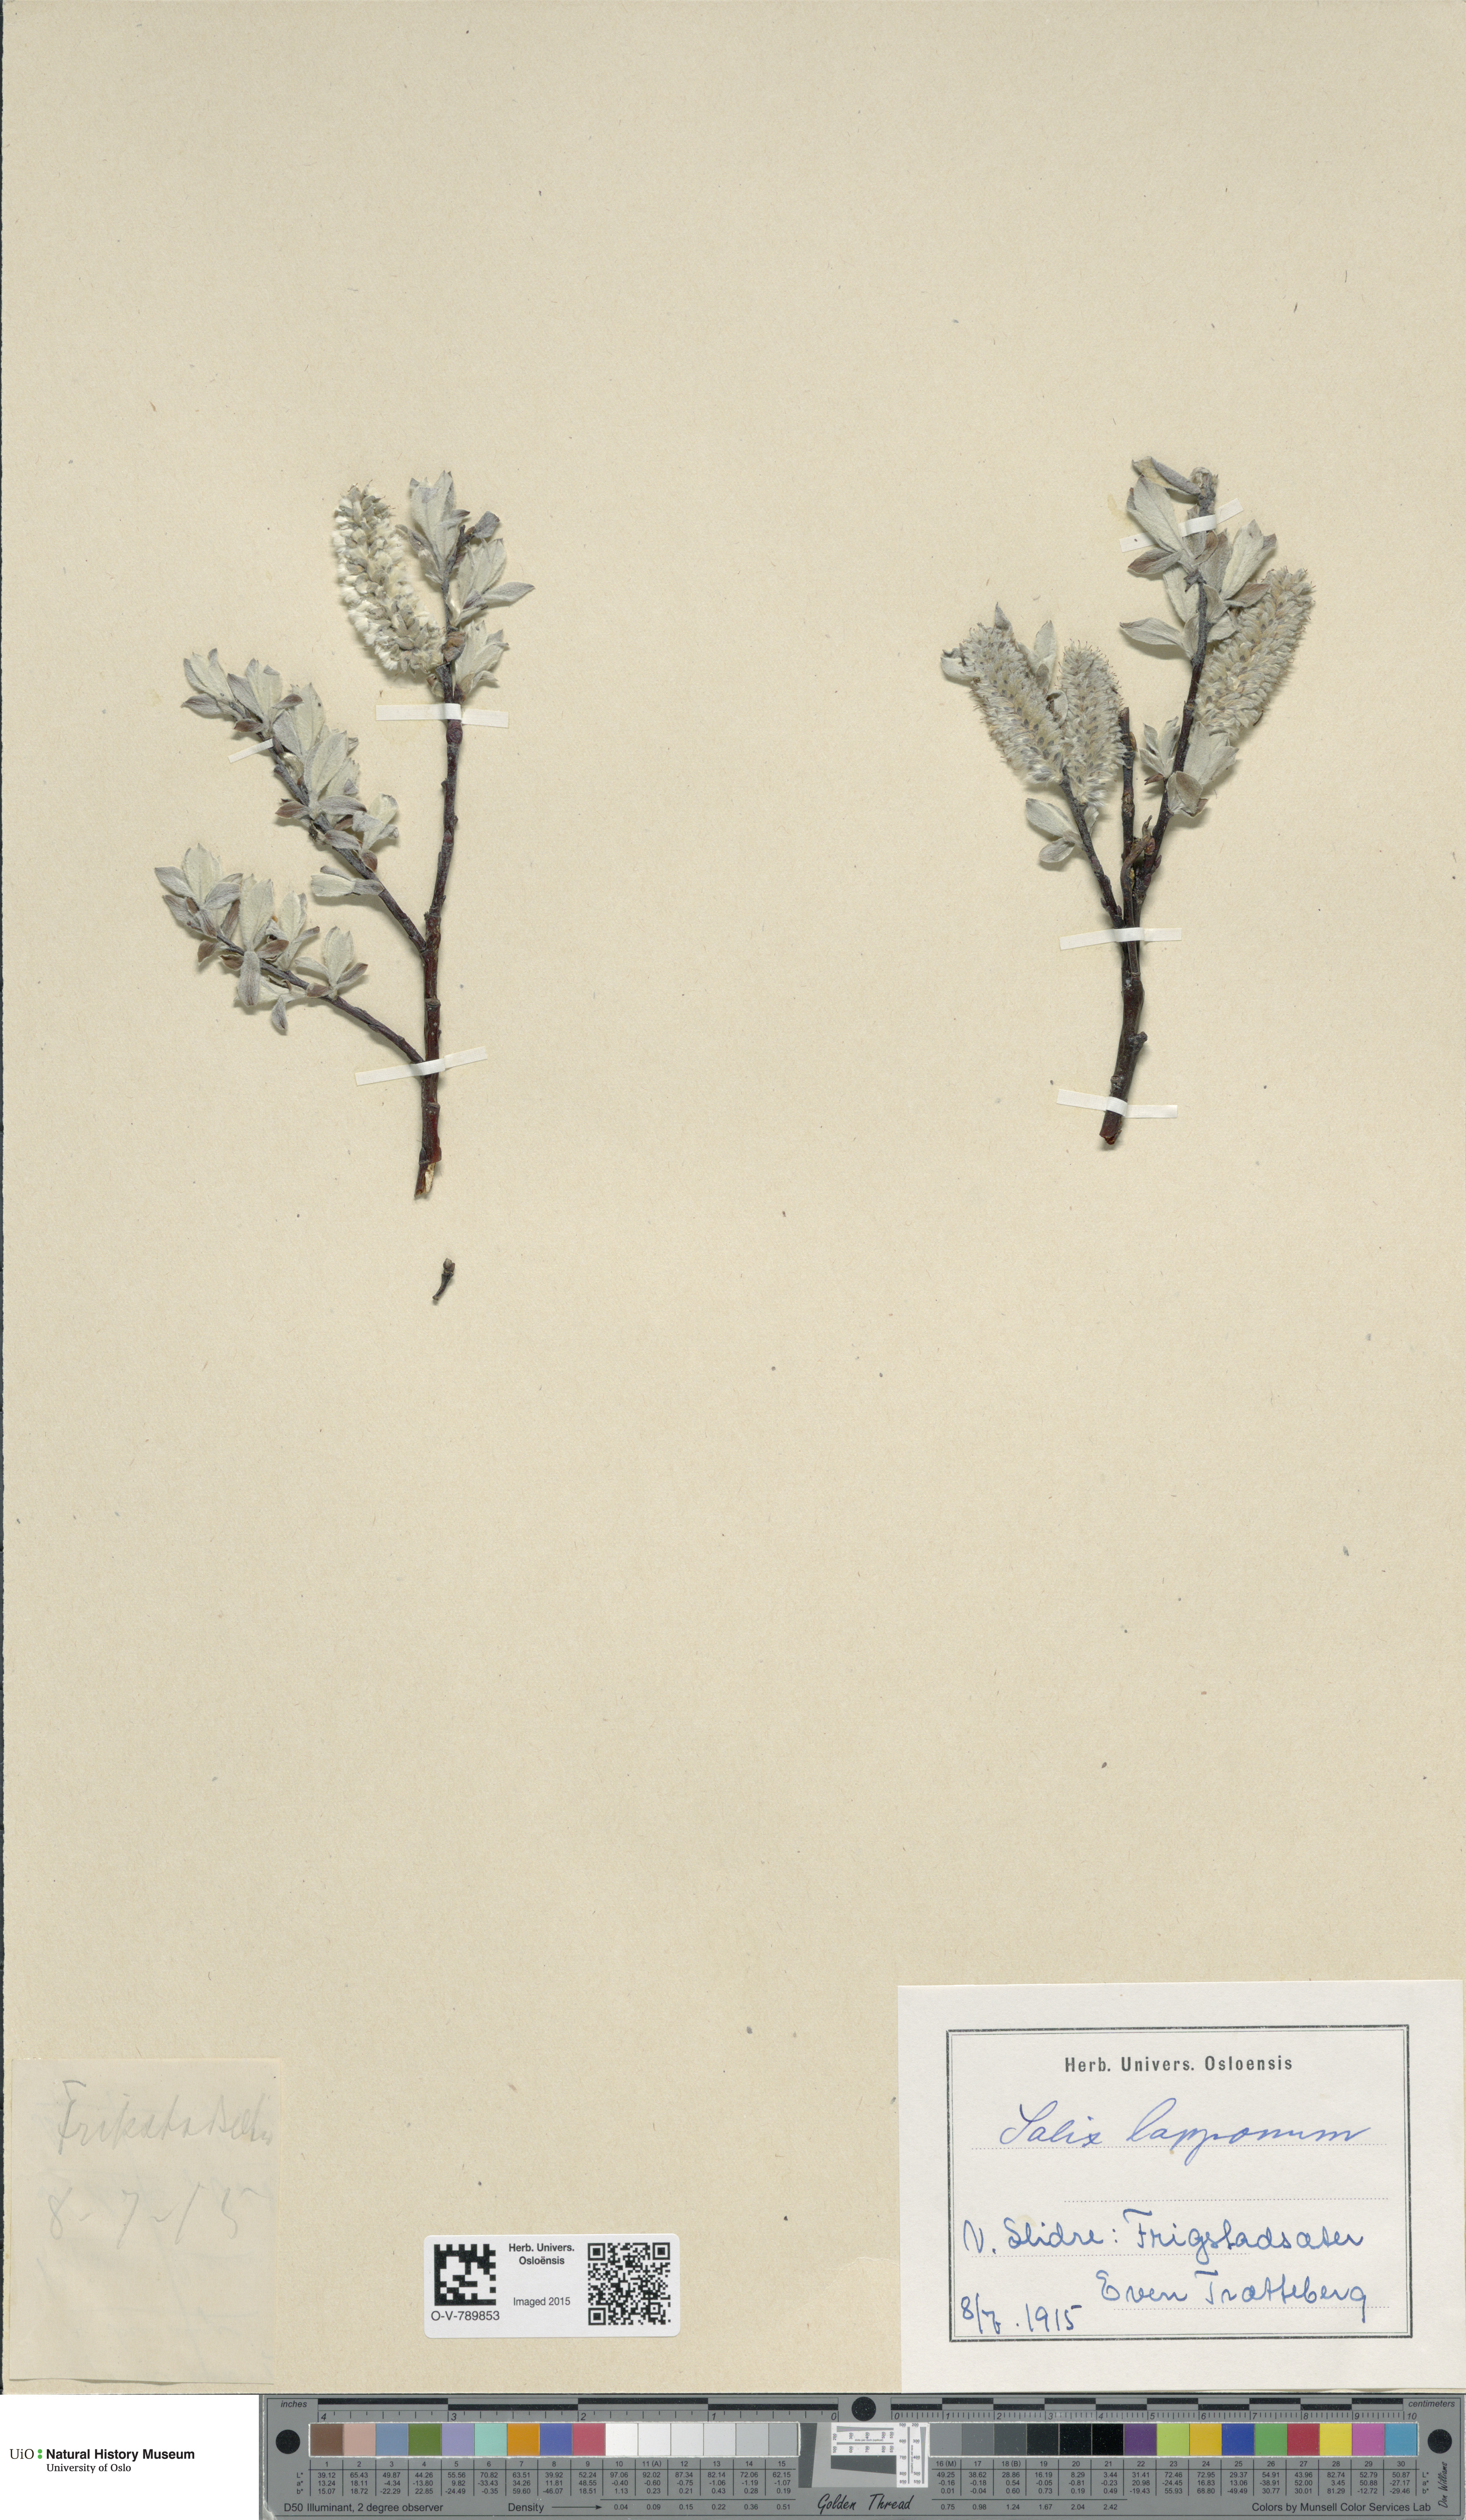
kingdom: Plantae
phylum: Tracheophyta
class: Magnoliopsida
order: Malpighiales
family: Salicaceae
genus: Salix
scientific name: Salix lapponum
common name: Downy willow
